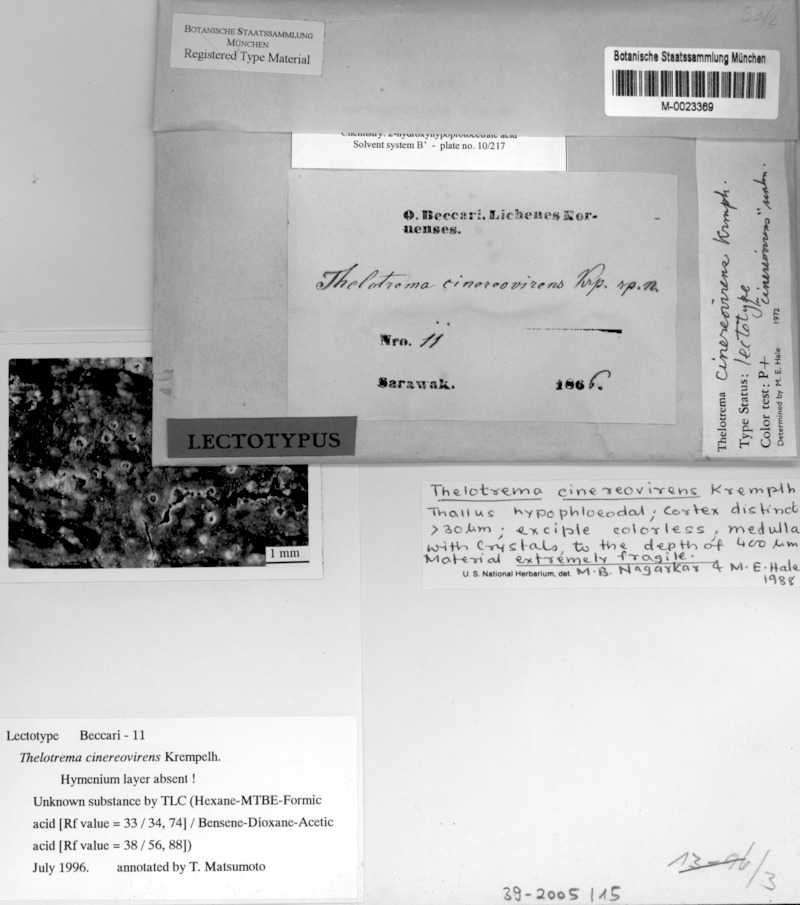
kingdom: Fungi
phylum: Ascomycota
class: Lecanoromycetes
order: Ostropales
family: Graphidaceae
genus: Thelotrema
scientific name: Thelotrema cinereovirens
